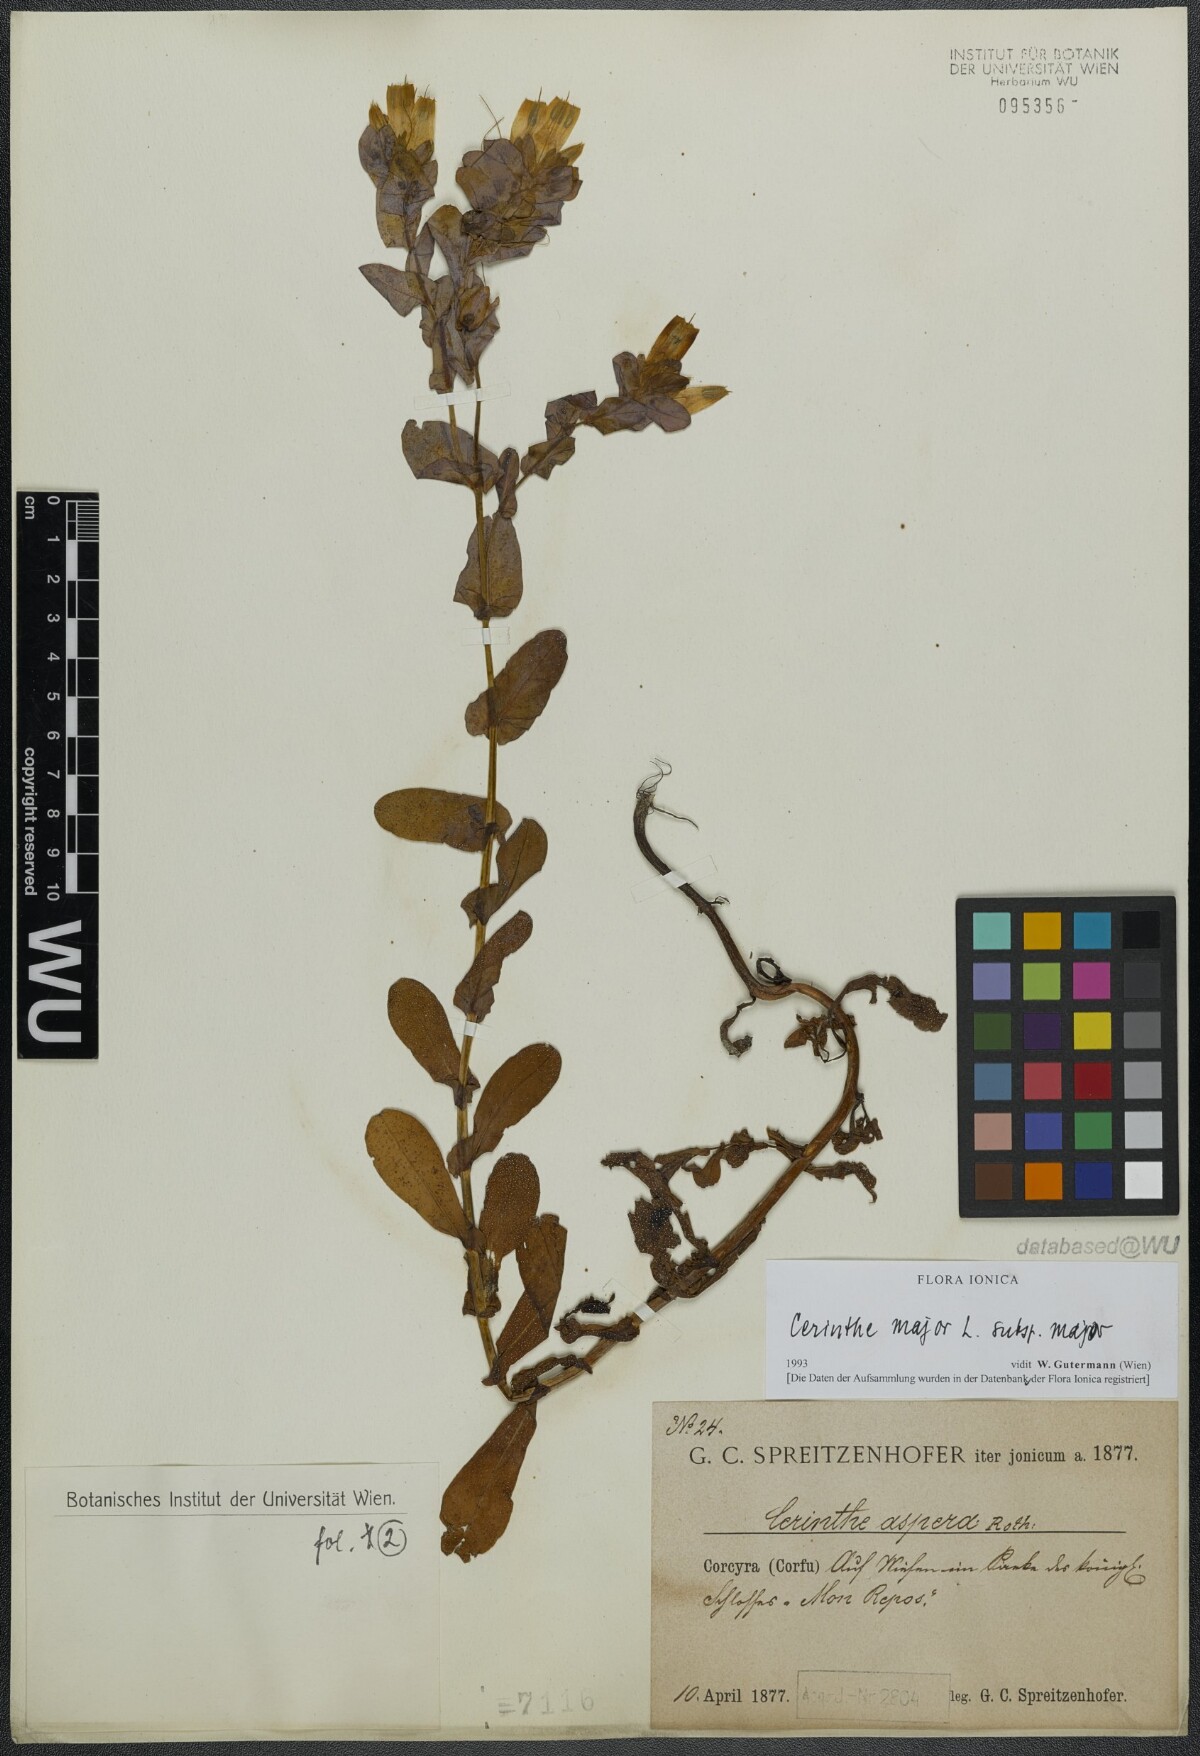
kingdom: Plantae
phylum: Tracheophyta
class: Magnoliopsida
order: Boraginales
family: Boraginaceae
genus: Cerinthe
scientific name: Cerinthe major
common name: Greater honeywort
